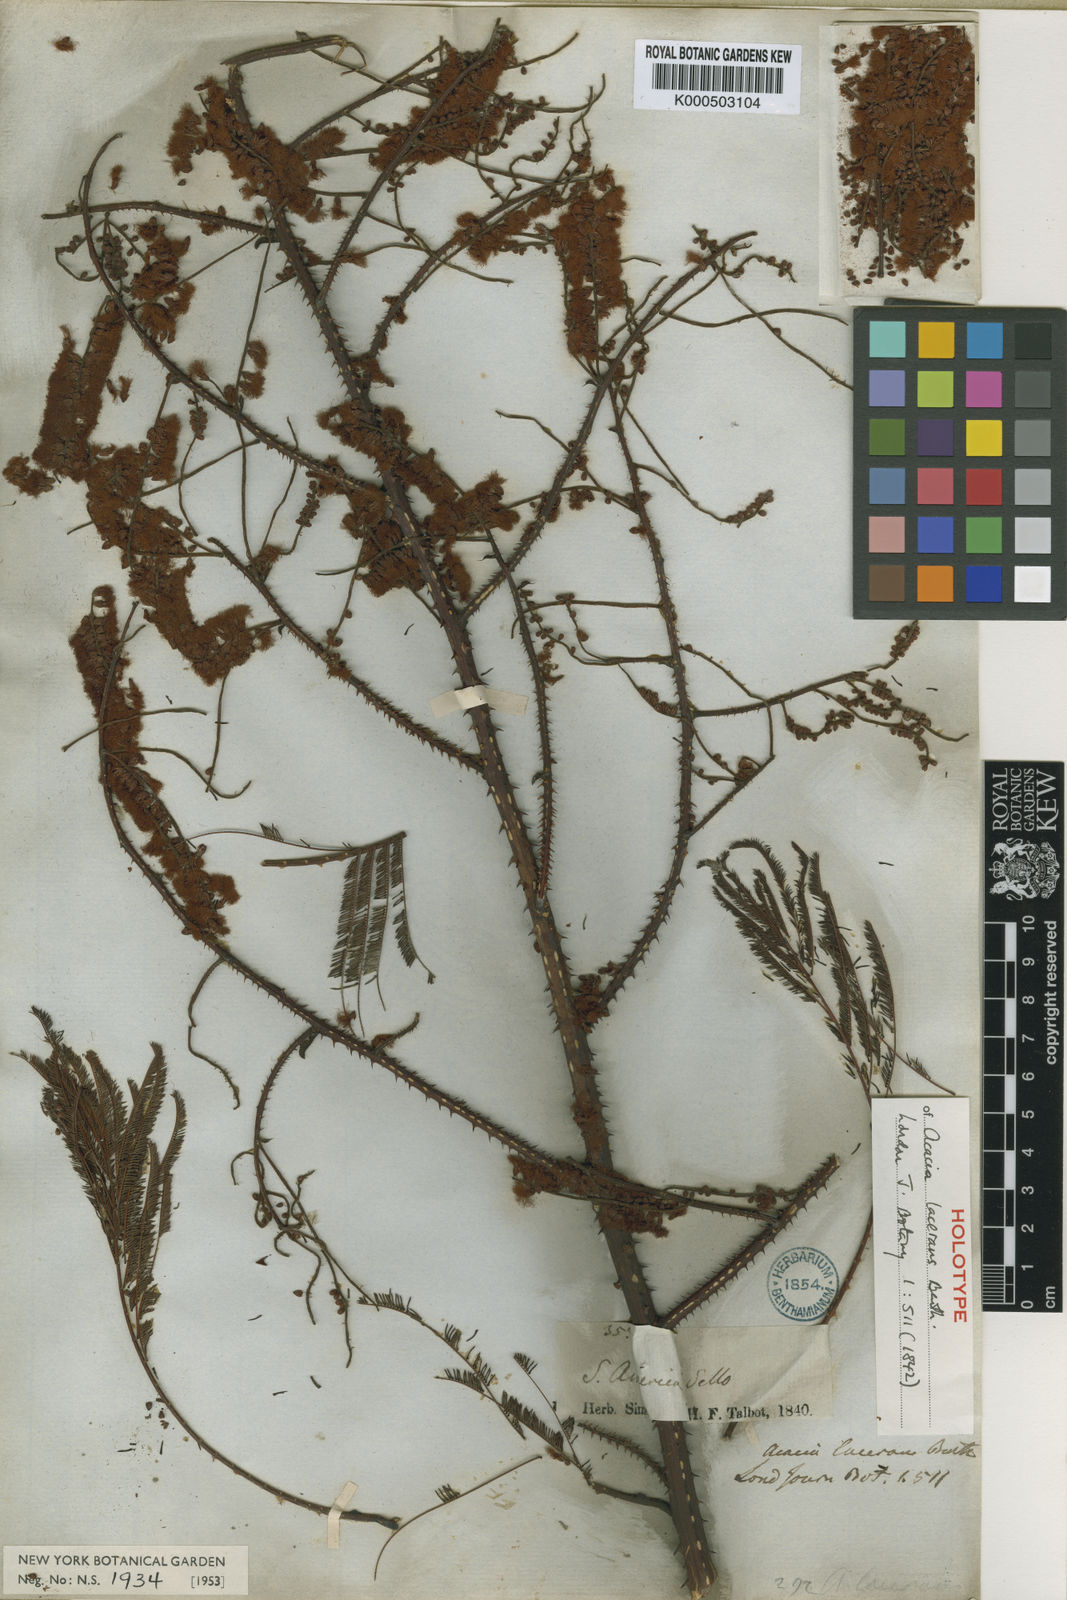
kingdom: Plantae
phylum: Tracheophyta
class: Magnoliopsida
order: Fabales
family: Fabaceae
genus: Senegalia
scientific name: Senegalia lacerans
